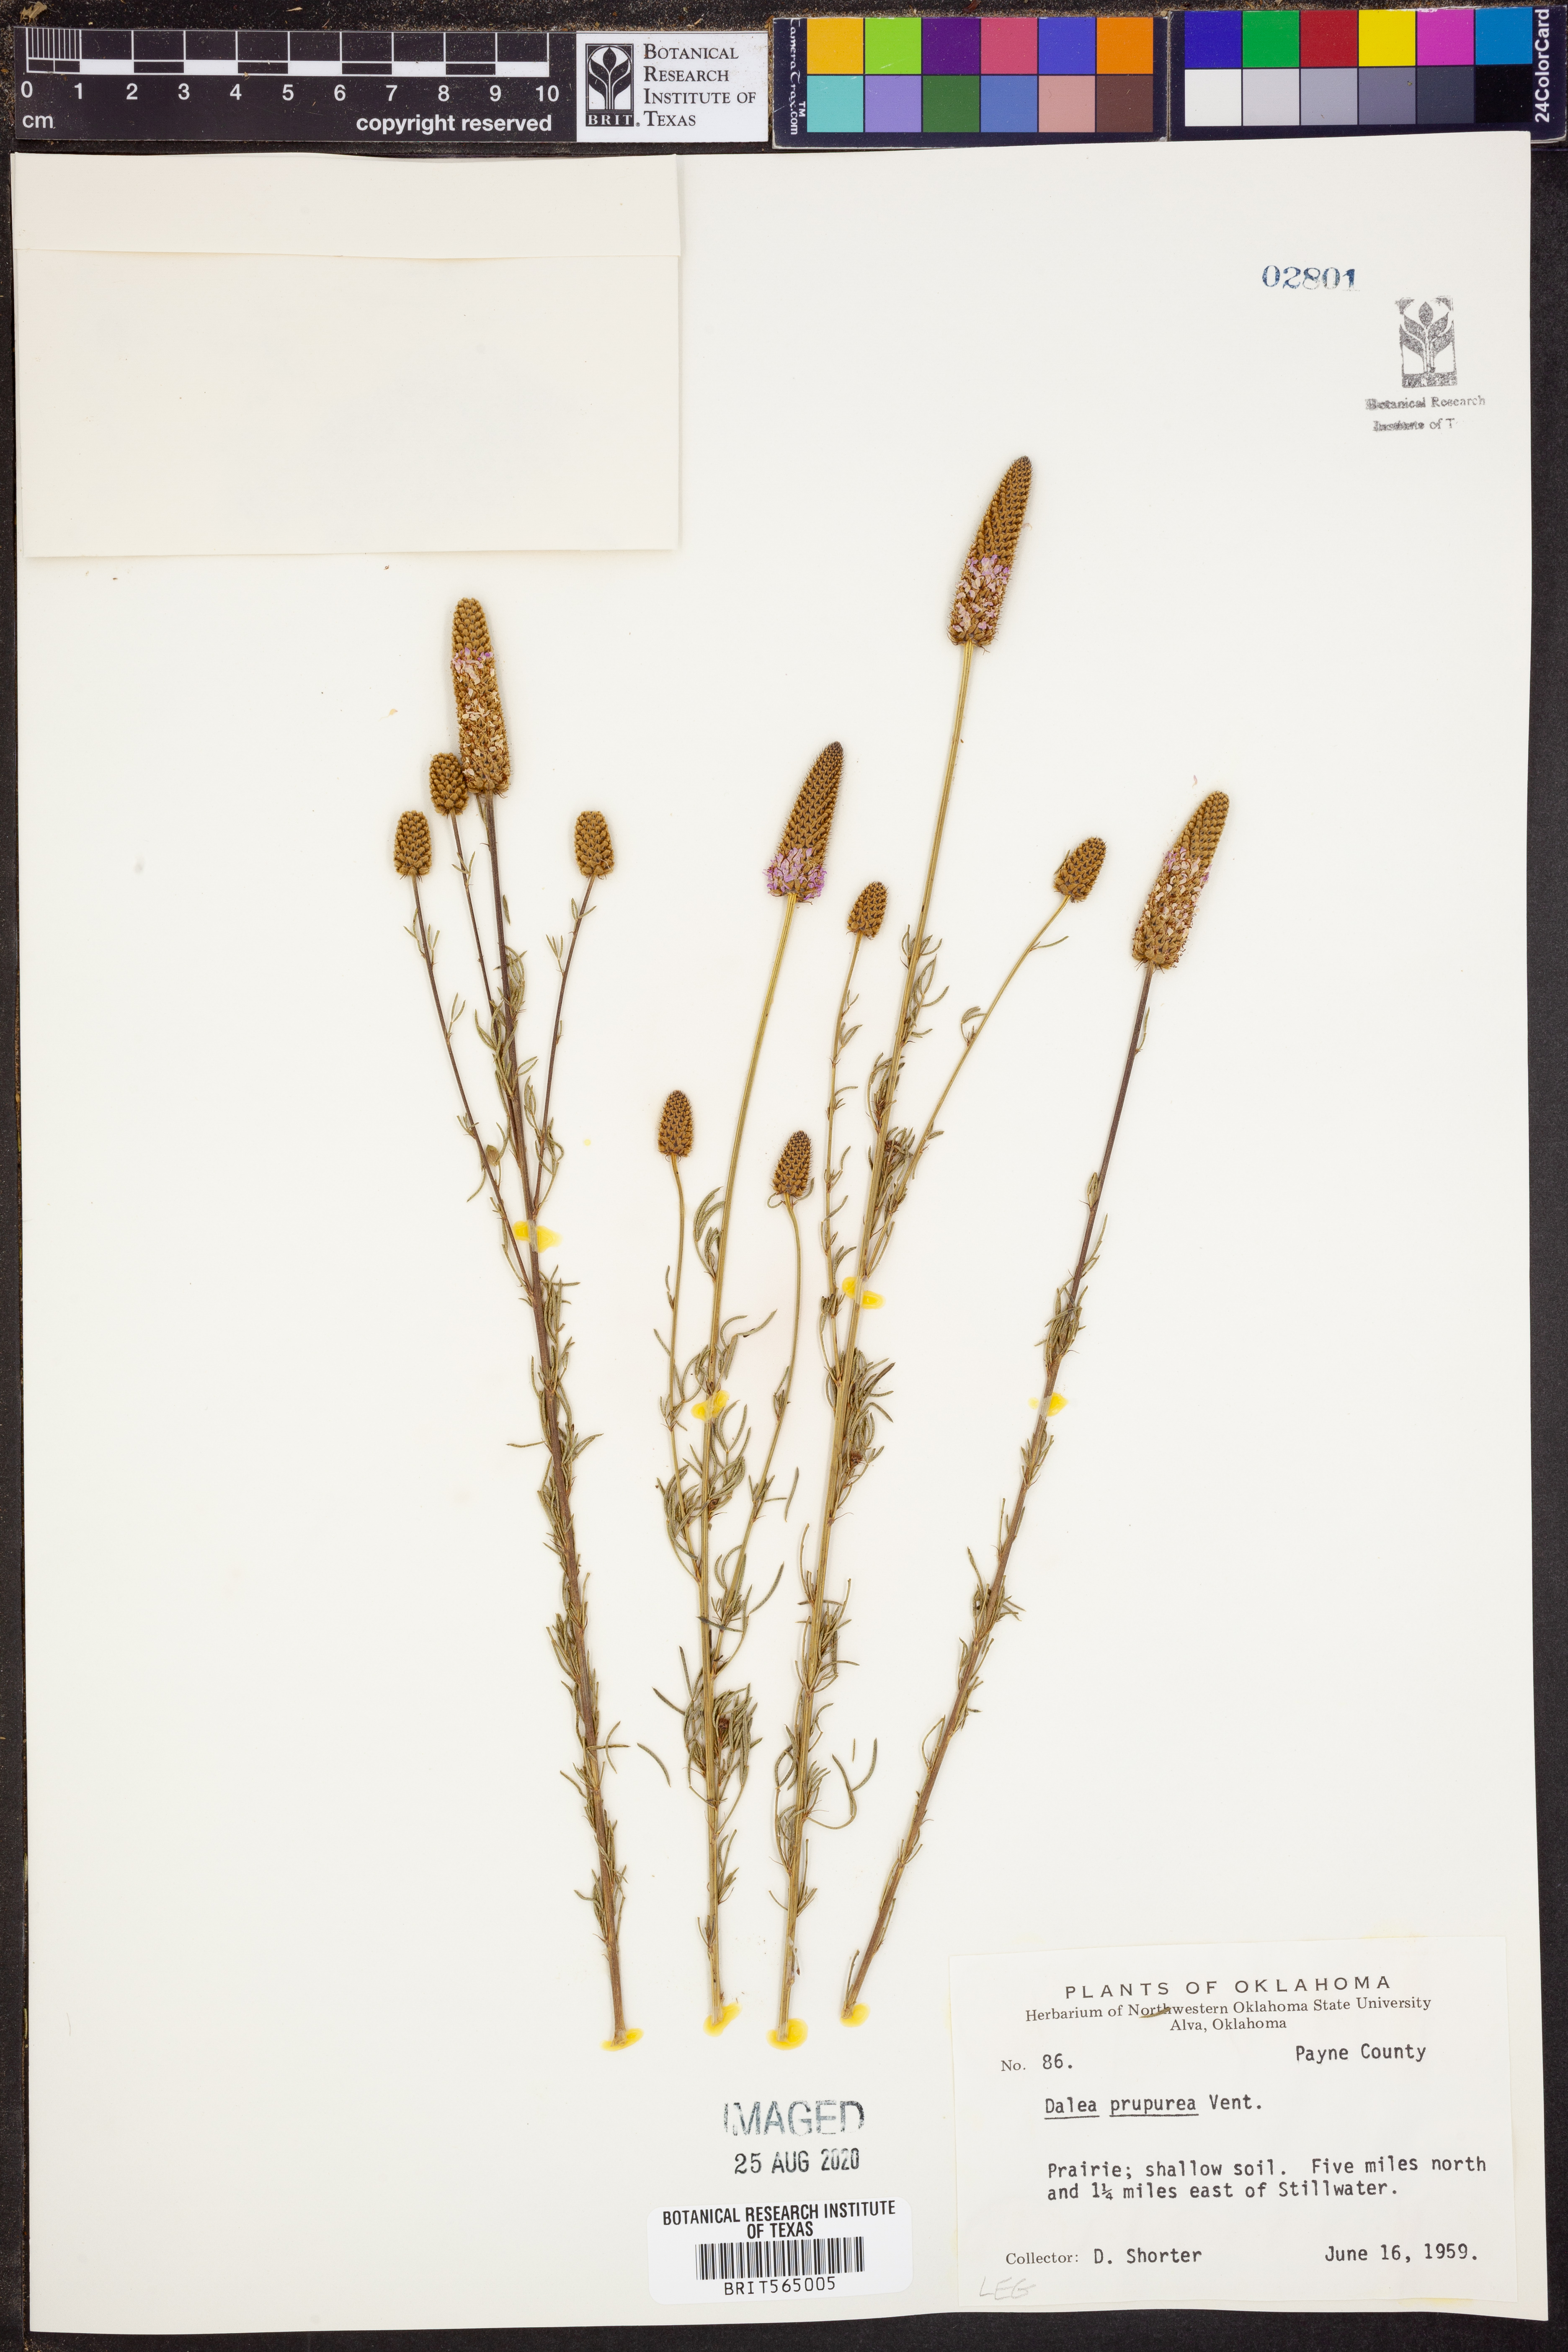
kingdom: Plantae
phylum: Tracheophyta
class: Magnoliopsida
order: Fabales
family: Fabaceae
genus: Dalea
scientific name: Dalea purpurea
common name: Purple prairie-clover
